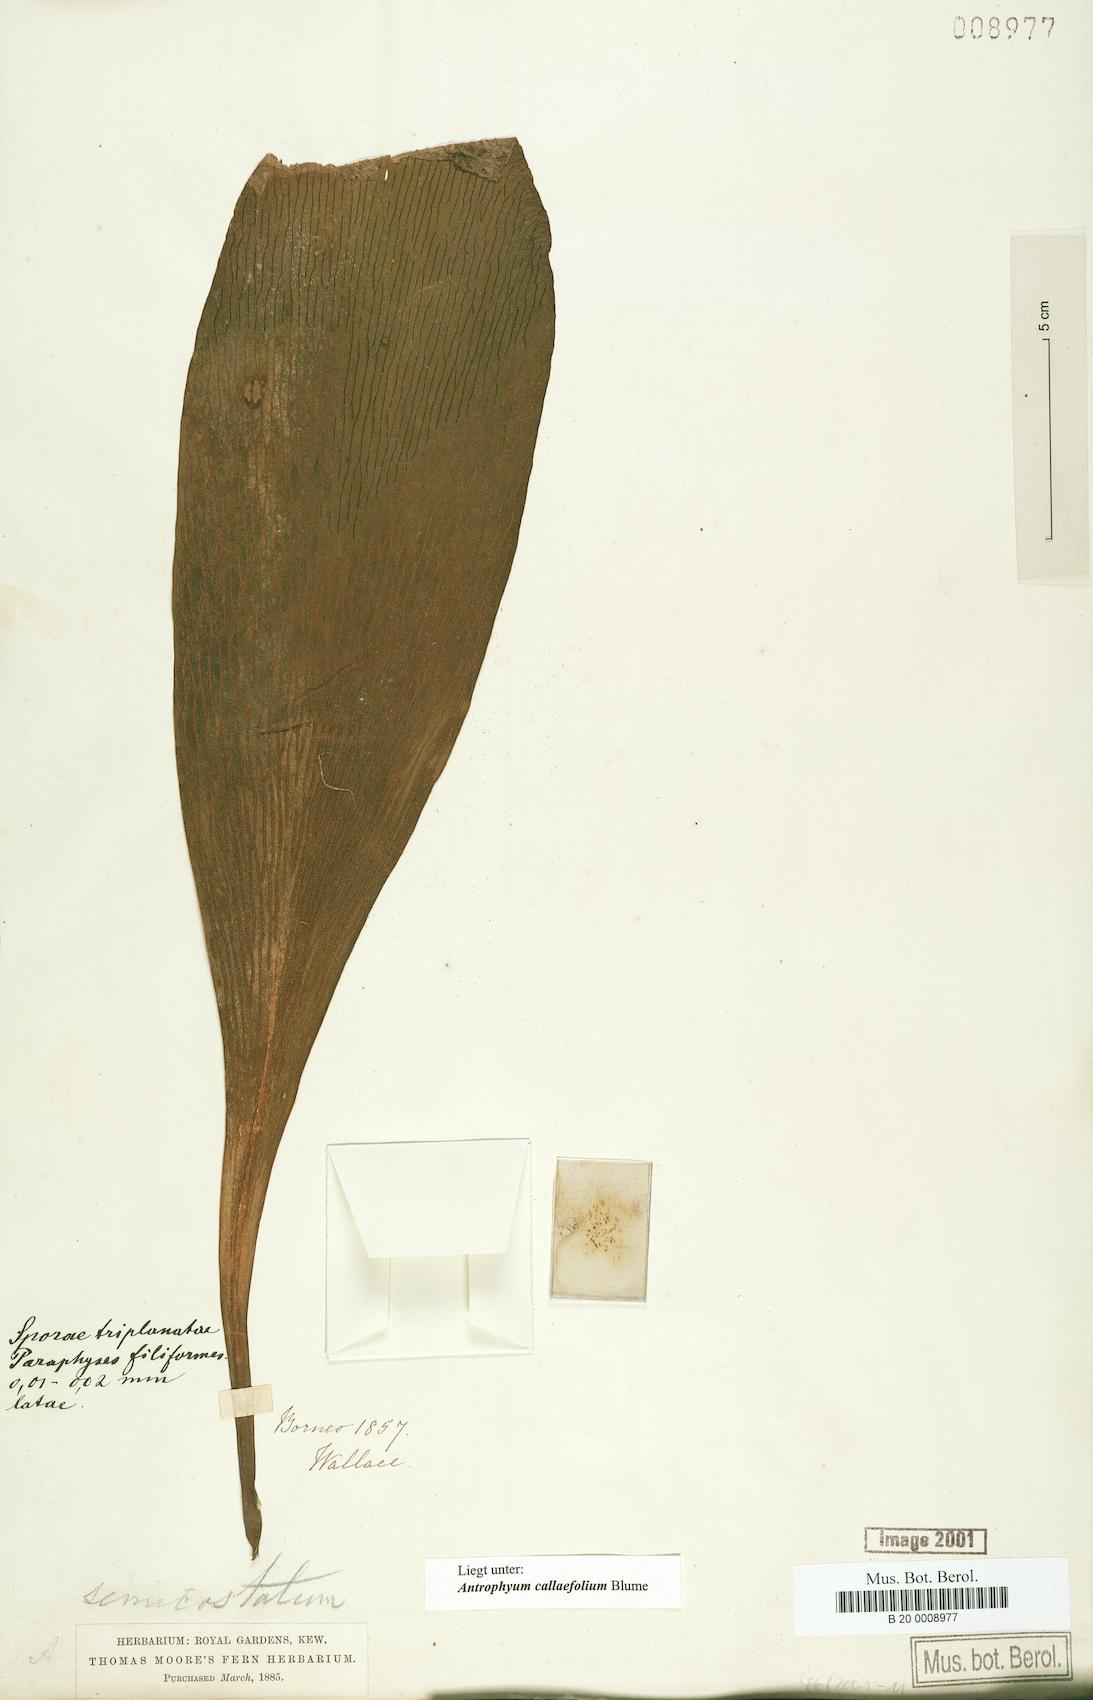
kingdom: Plantae
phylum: Tracheophyta
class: Polypodiopsida
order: Polypodiales
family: Pteridaceae
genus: Antrophyum
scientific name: Antrophyum callifolium
